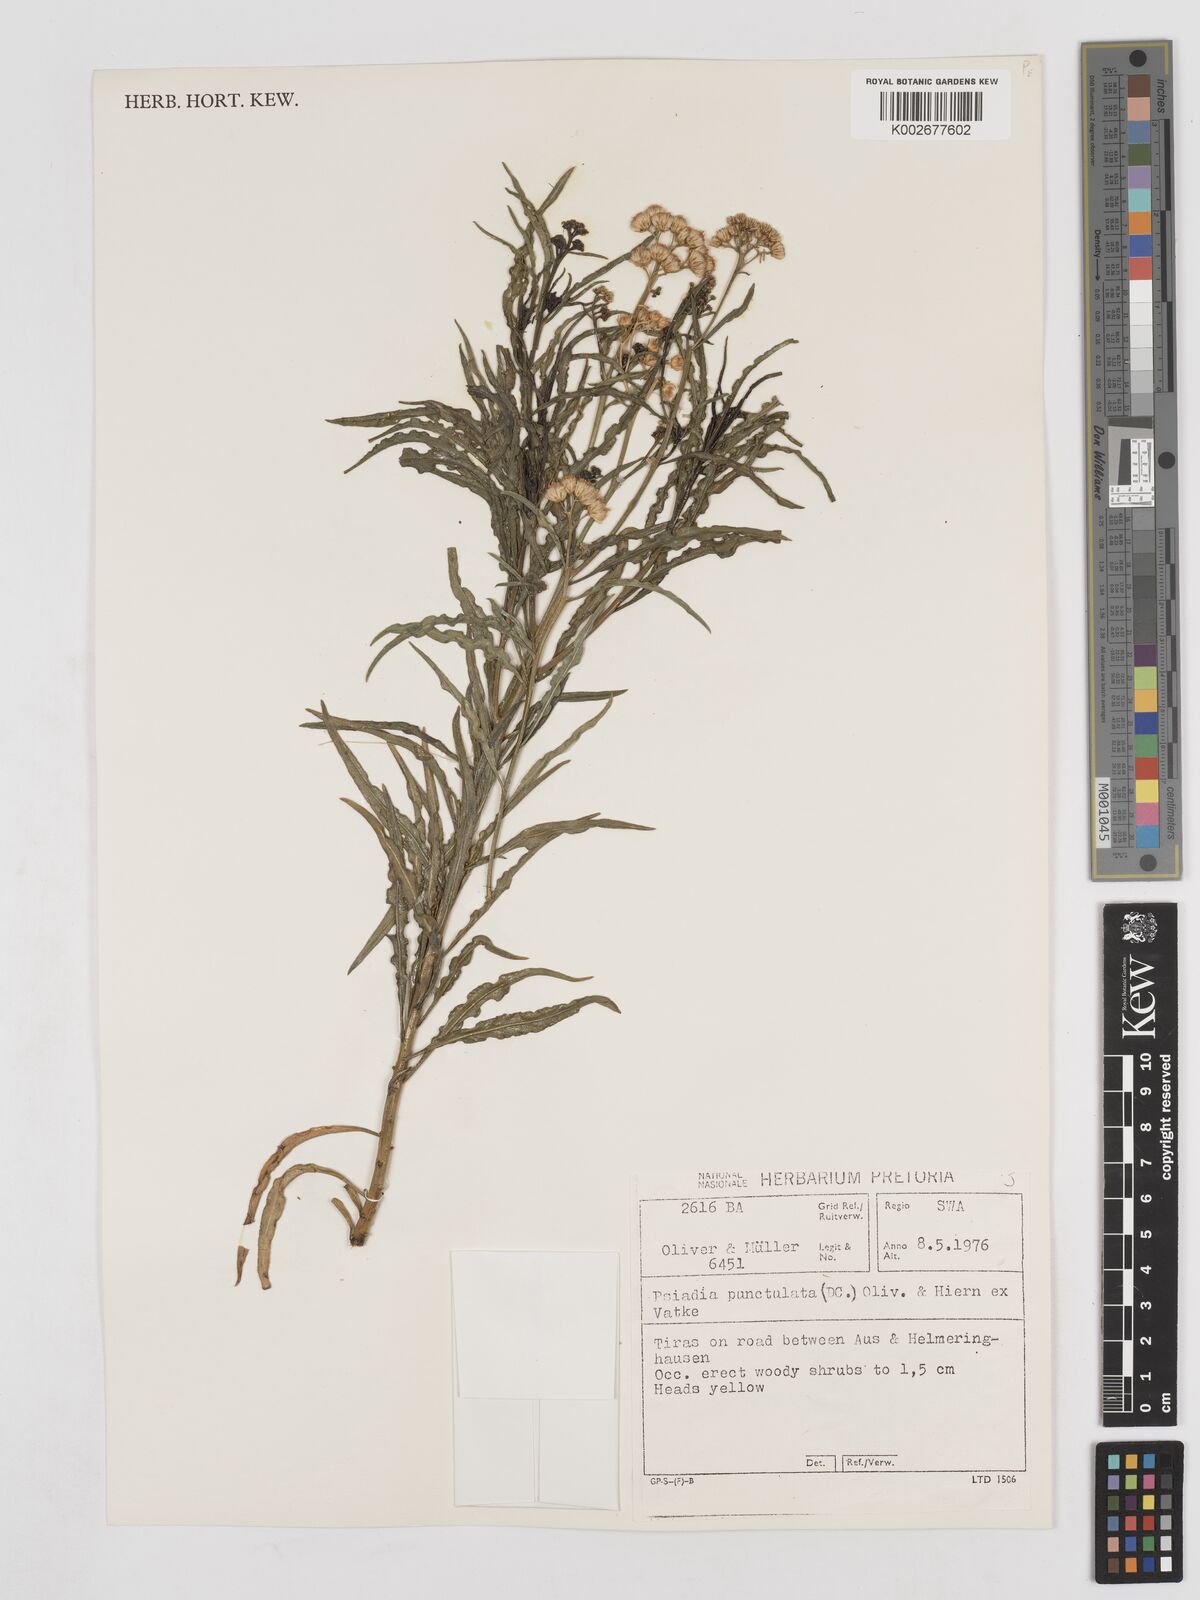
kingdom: Plantae
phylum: Tracheophyta
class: Magnoliopsida
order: Asterales
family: Asteraceae
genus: Psiadia
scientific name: Psiadia punctulata
